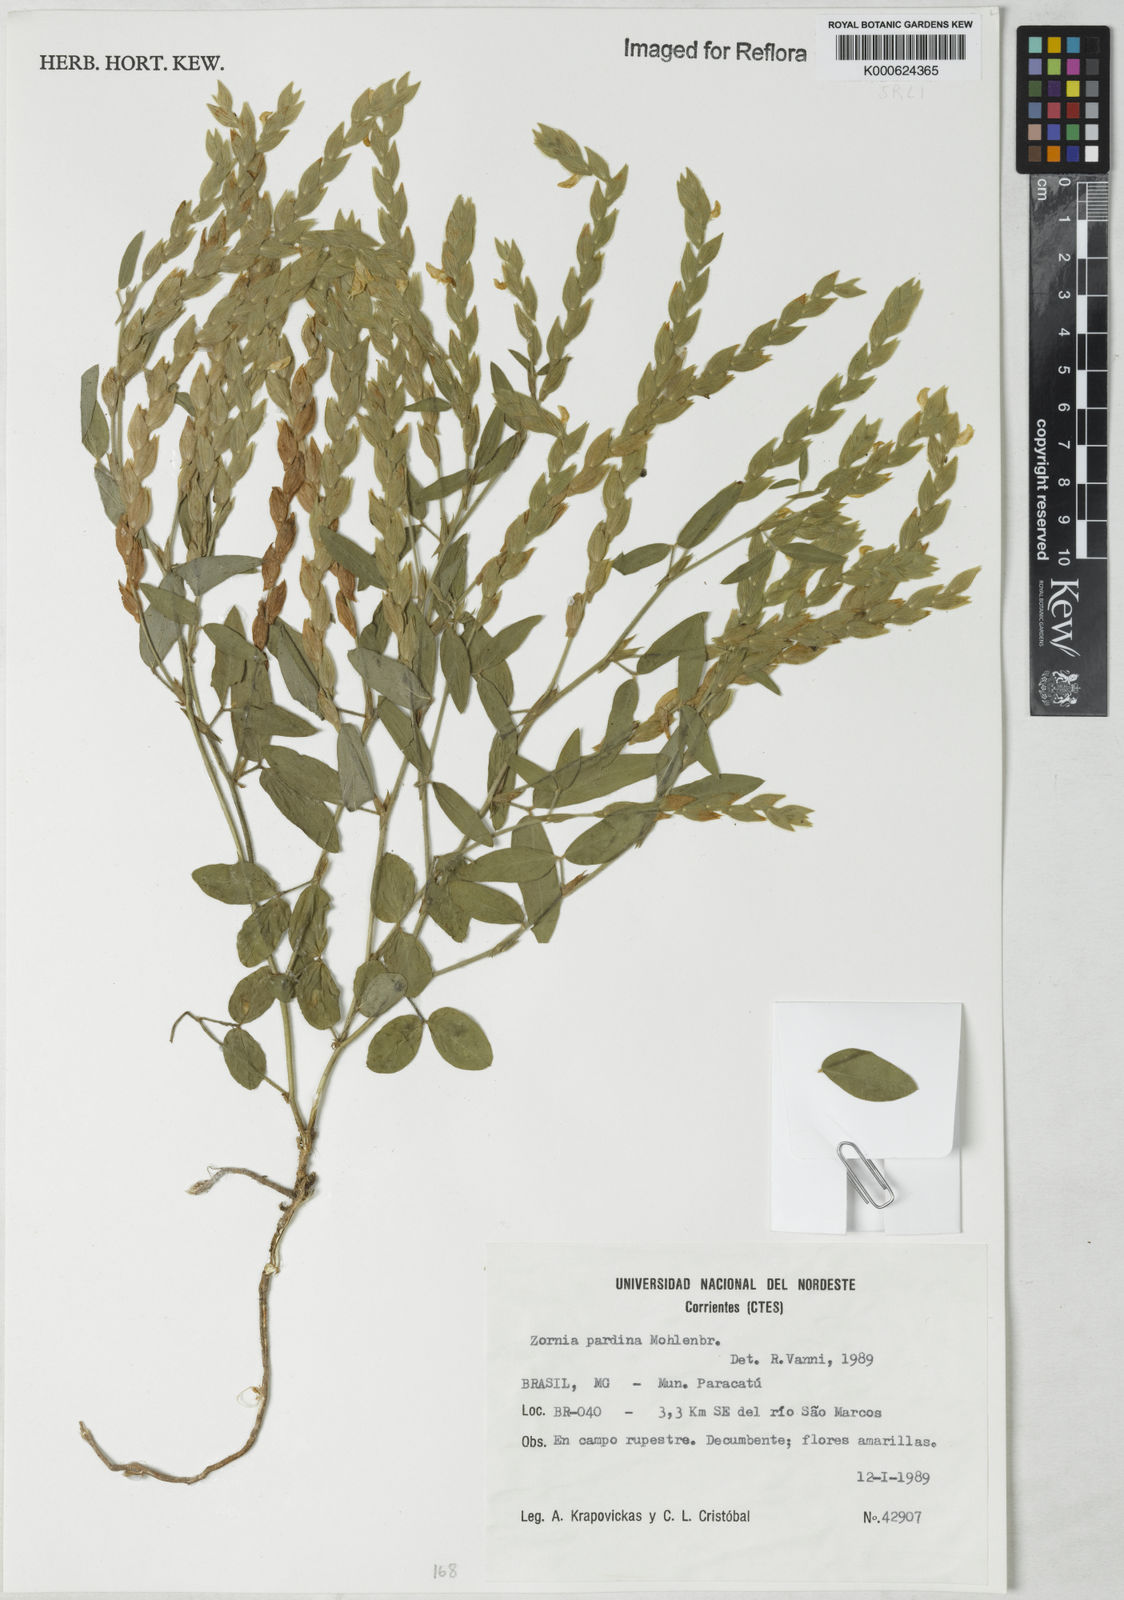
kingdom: Plantae
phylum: Tracheophyta
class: Magnoliopsida
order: Fabales
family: Fabaceae
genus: Zornia
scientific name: Zornia pardina
